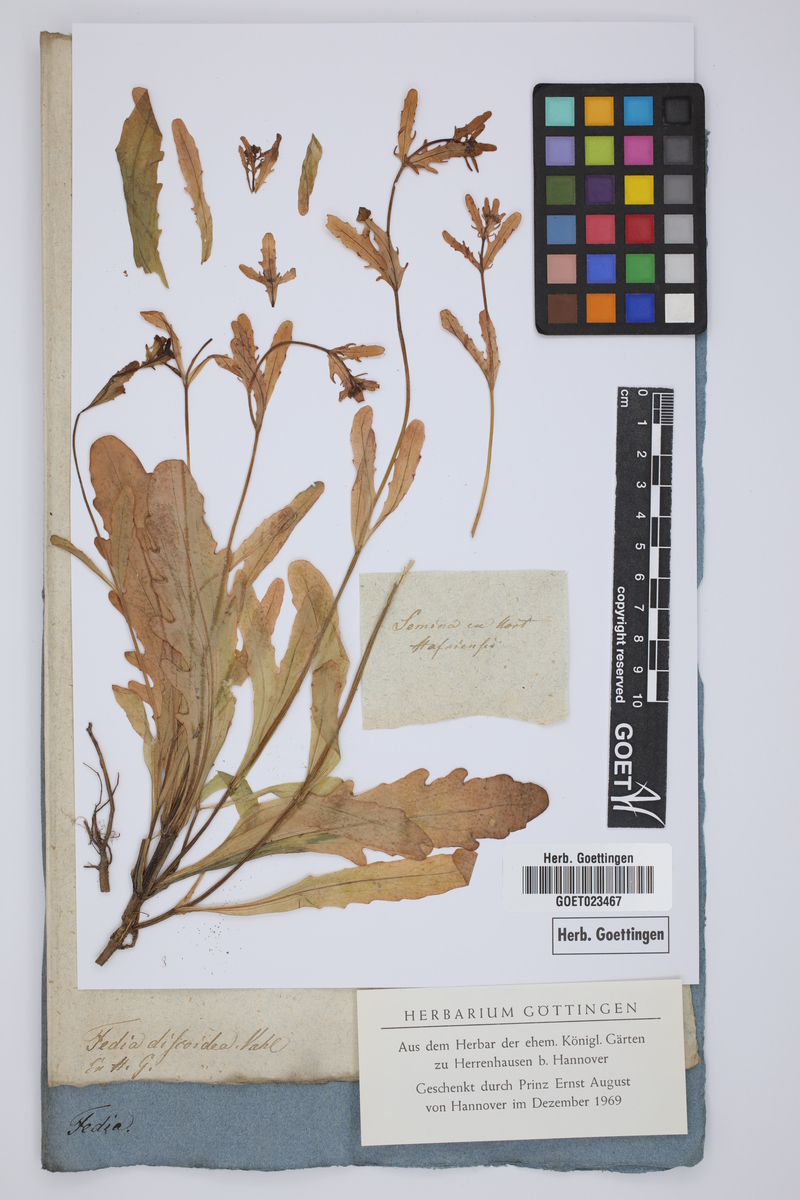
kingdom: Plantae
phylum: Tracheophyta
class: Magnoliopsida
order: Dipsacales
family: Caprifoliaceae
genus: Valerianella
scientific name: Valerianella discoidea
